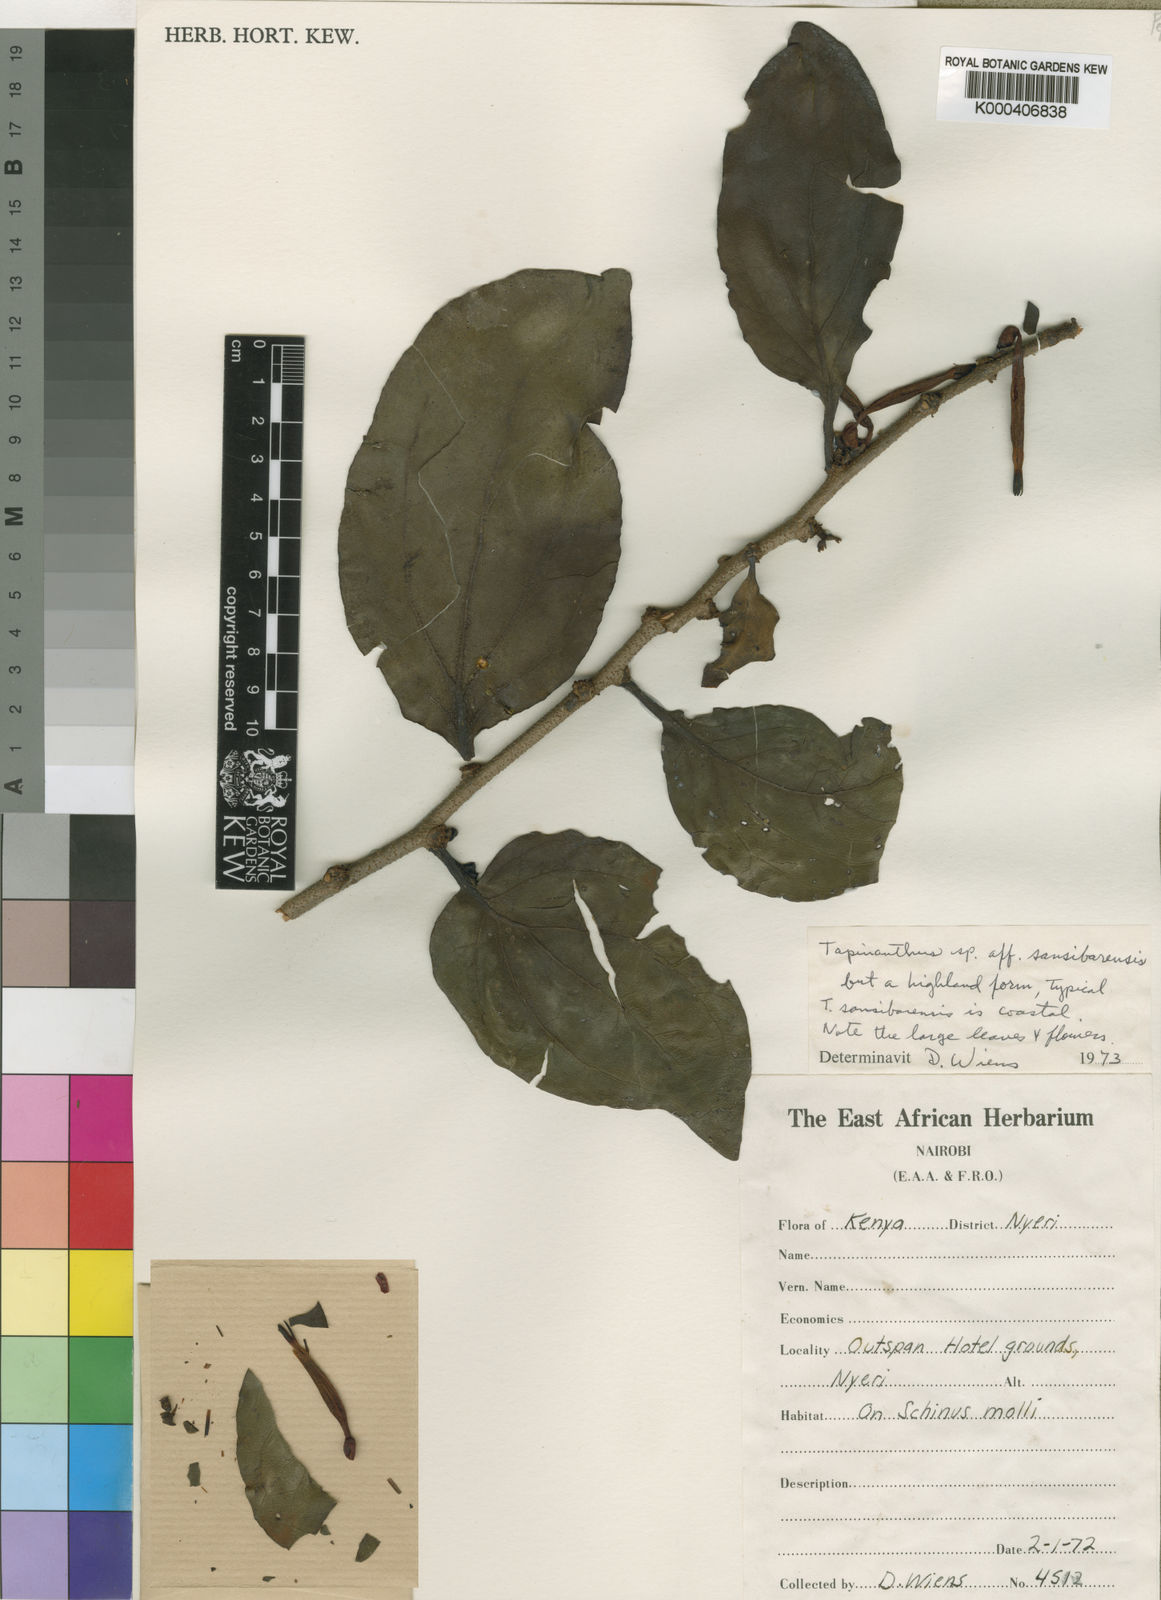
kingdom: Plantae
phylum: Tracheophyta
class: Magnoliopsida
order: Santalales
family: Loranthaceae
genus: Agelanthus
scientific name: Agelanthus sansibarensis
